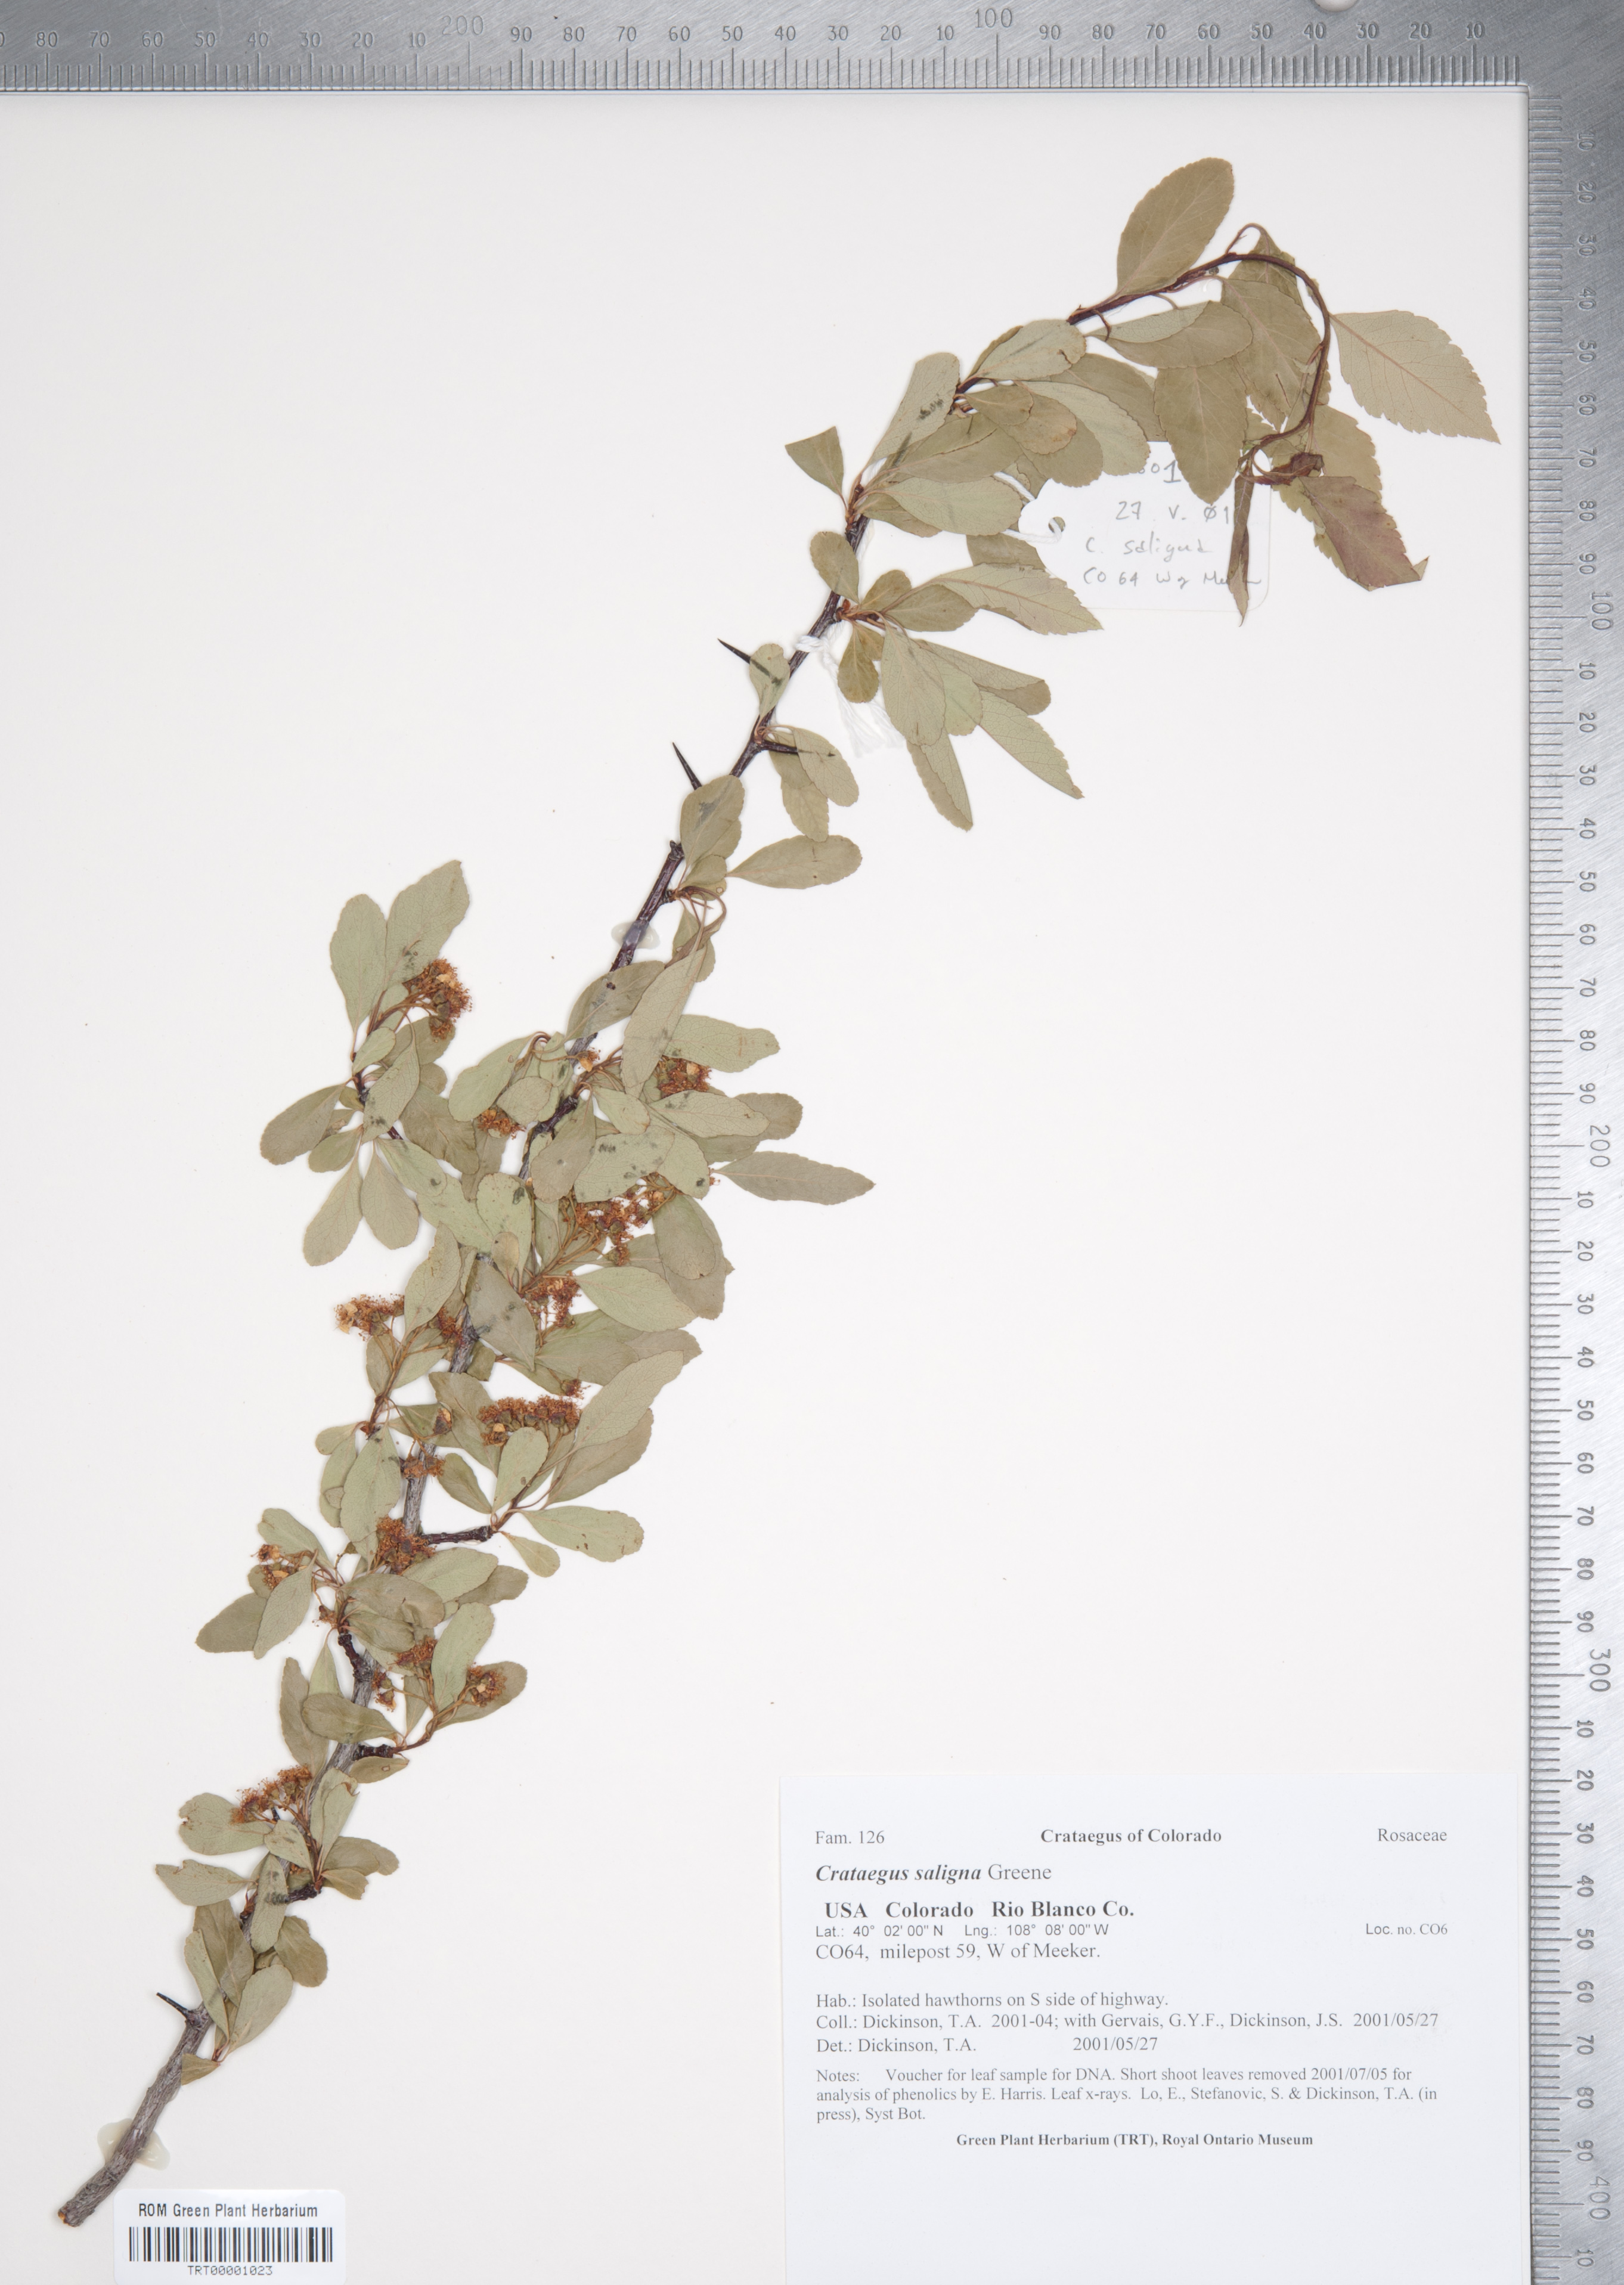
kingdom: Plantae
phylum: Tracheophyta
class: Magnoliopsida
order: Rosales
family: Rosaceae
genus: Crataegus
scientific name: Crataegus saligna
